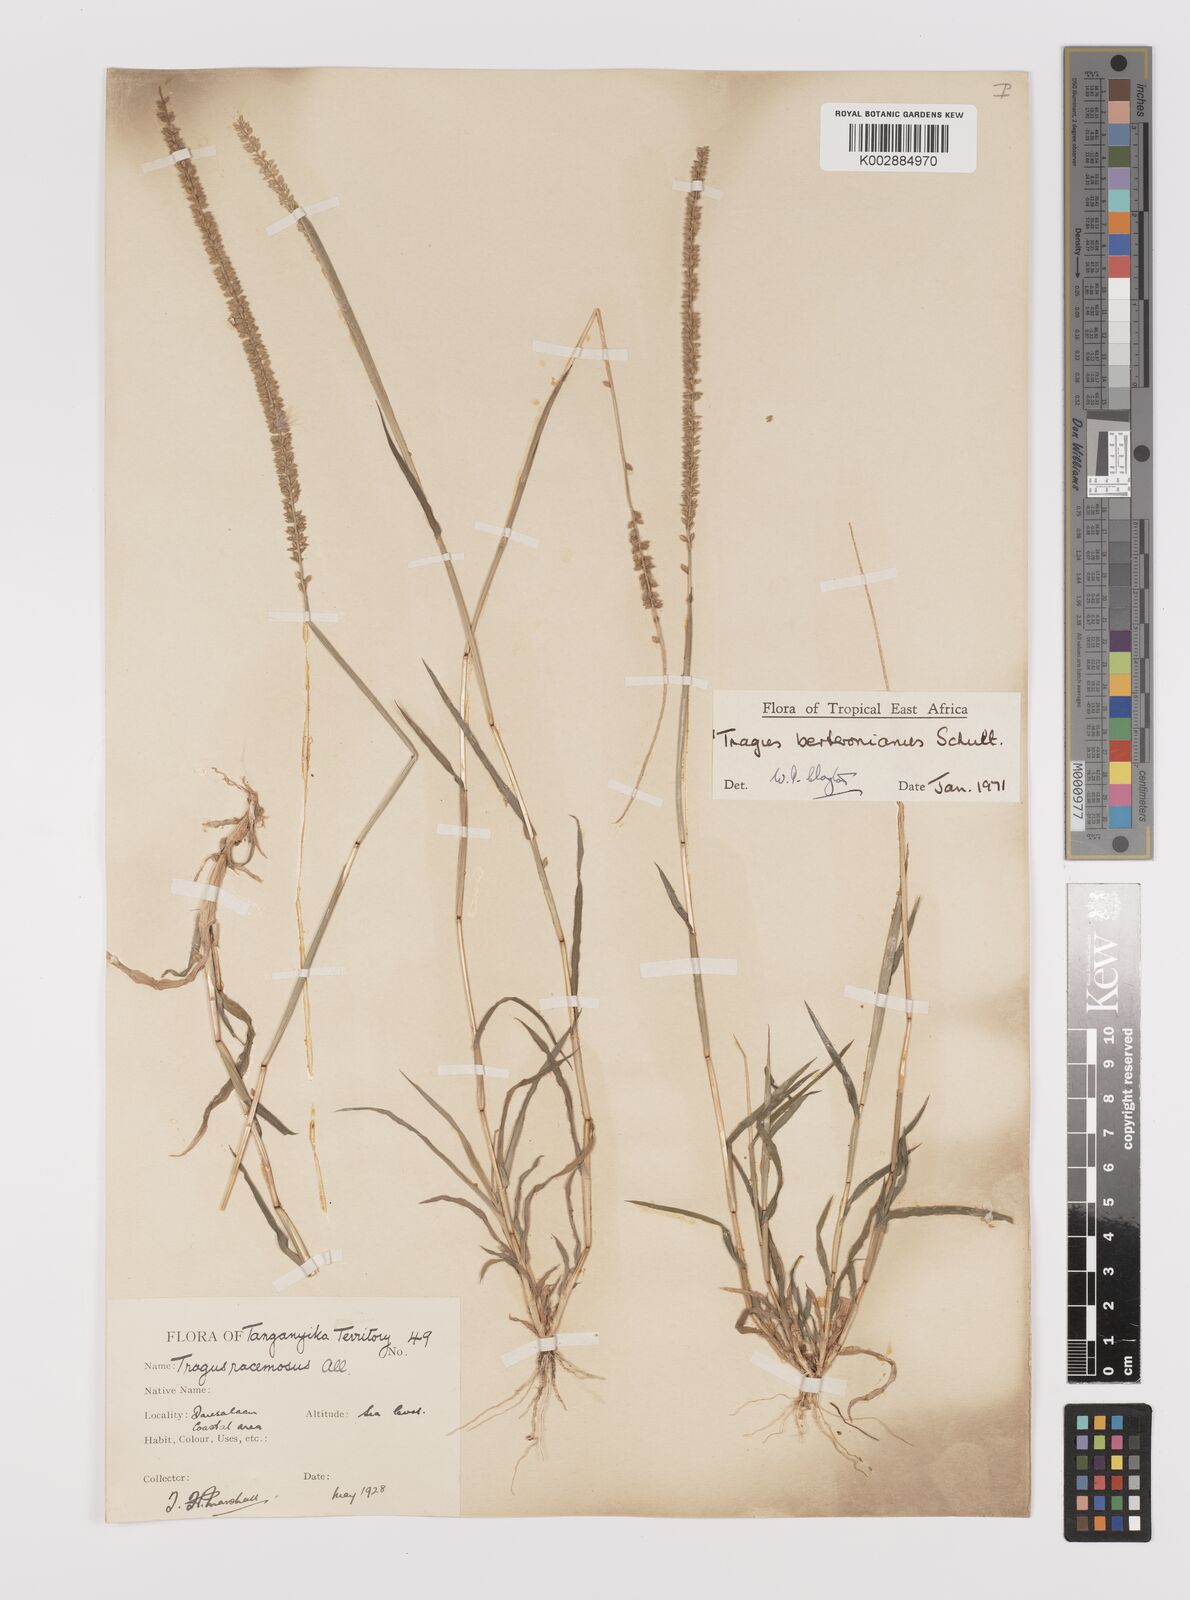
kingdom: Plantae
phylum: Tracheophyta
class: Liliopsida
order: Poales
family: Poaceae
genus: Tragus
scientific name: Tragus berteronianus
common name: African bur-grass
